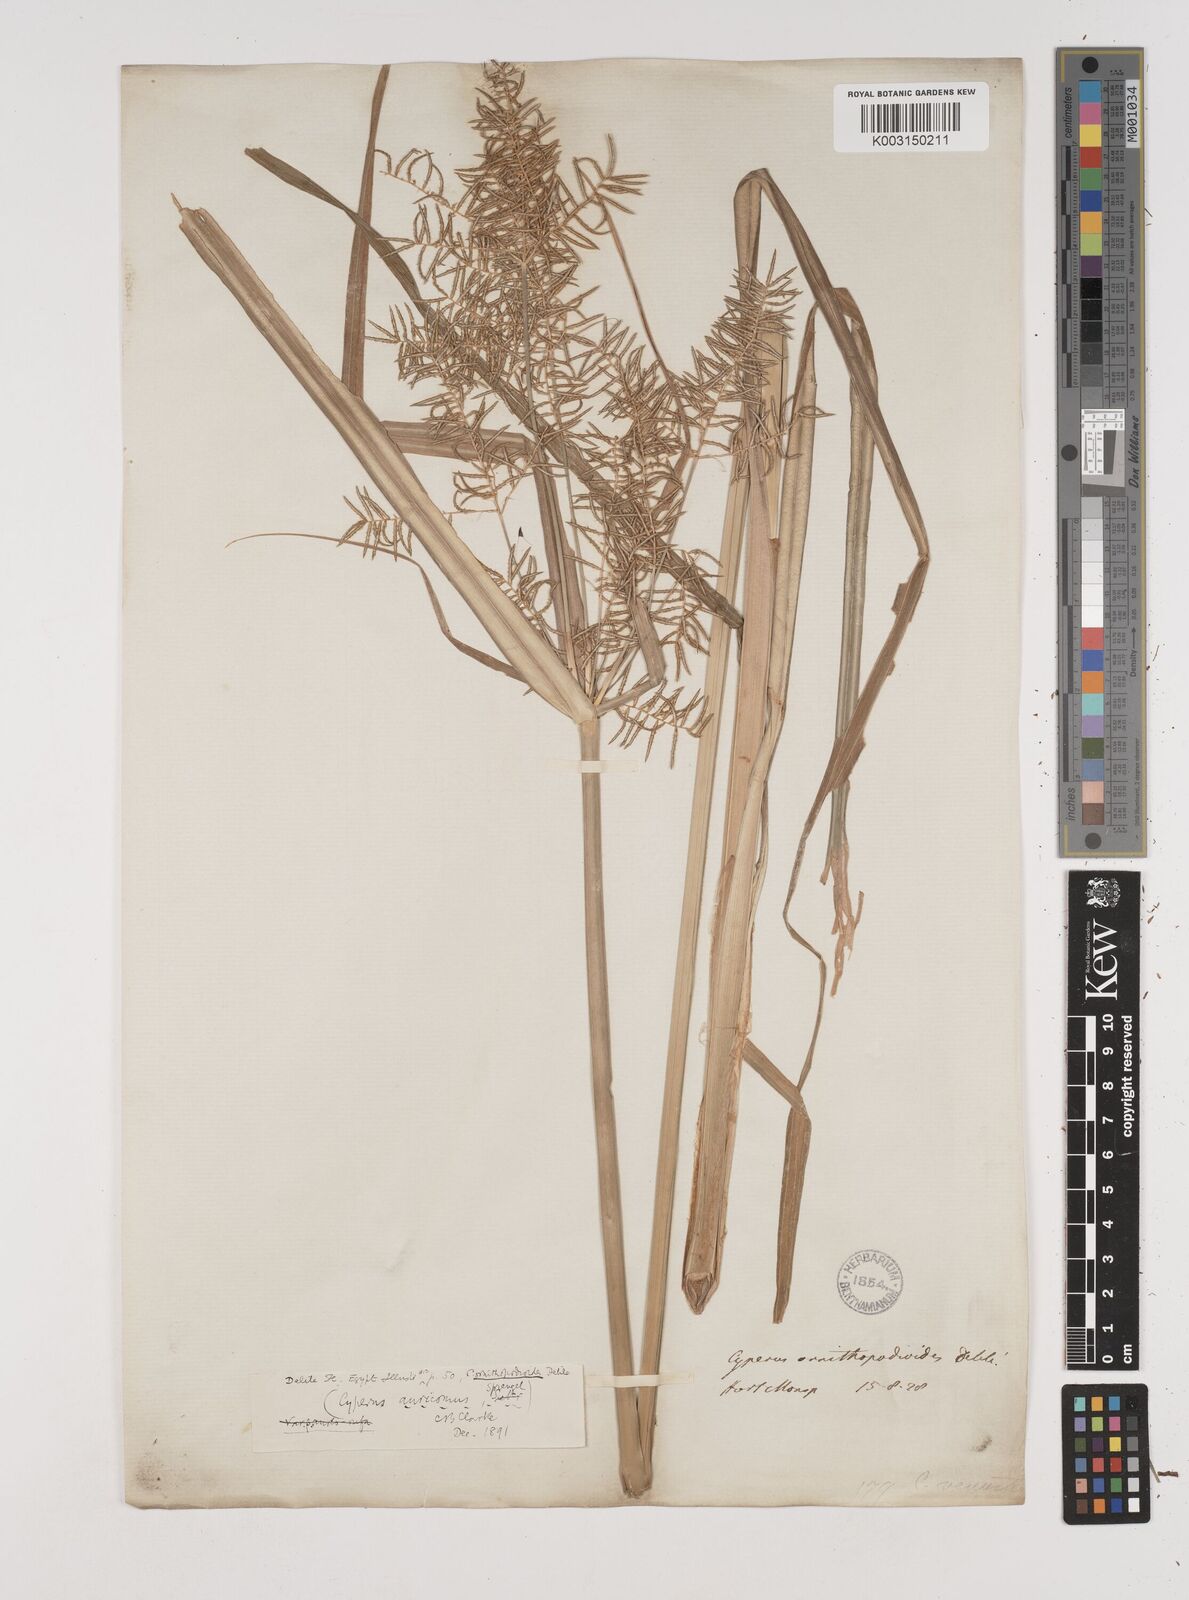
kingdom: Plantae
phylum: Tracheophyta
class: Liliopsida
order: Poales
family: Cyperaceae
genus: Cyperus
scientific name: Cyperus digitatus
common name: Finger flatsedge
